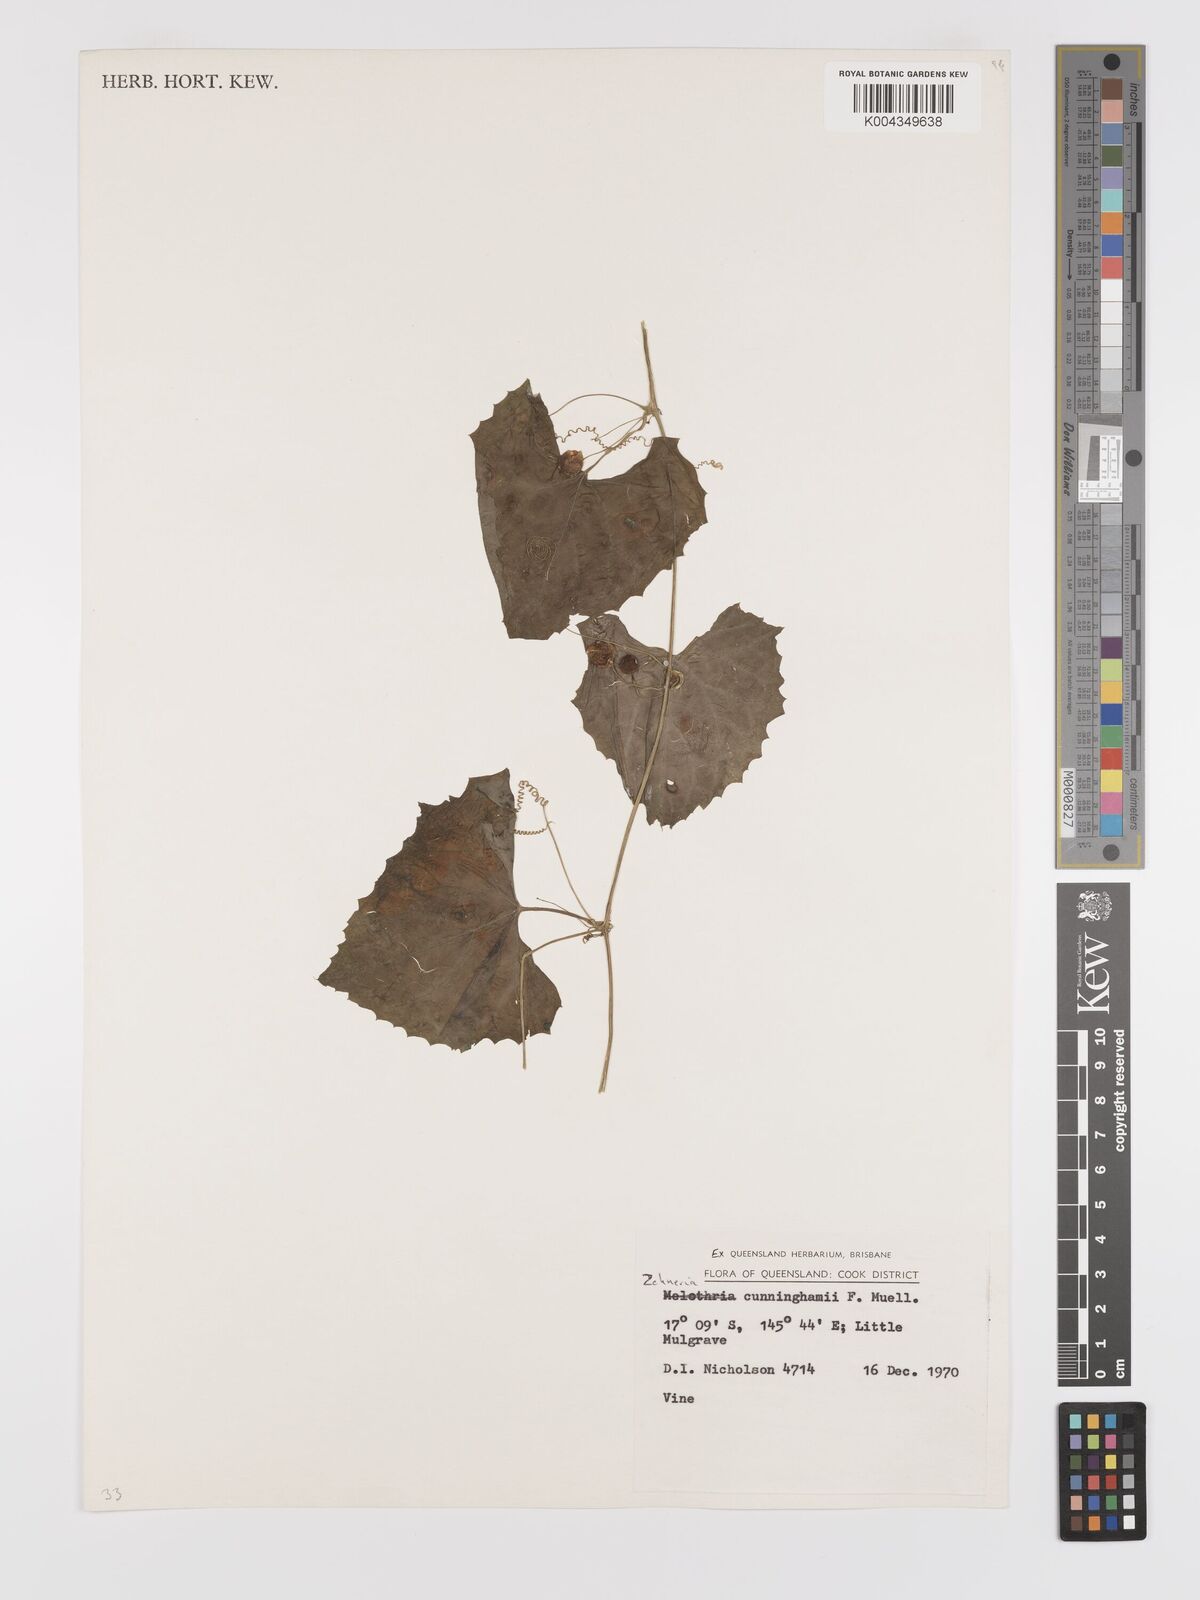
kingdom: Plantae
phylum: Tracheophyta
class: Magnoliopsida
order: Cucurbitales
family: Cucurbitaceae
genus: Zehneria
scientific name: Zehneria cunninghamii
